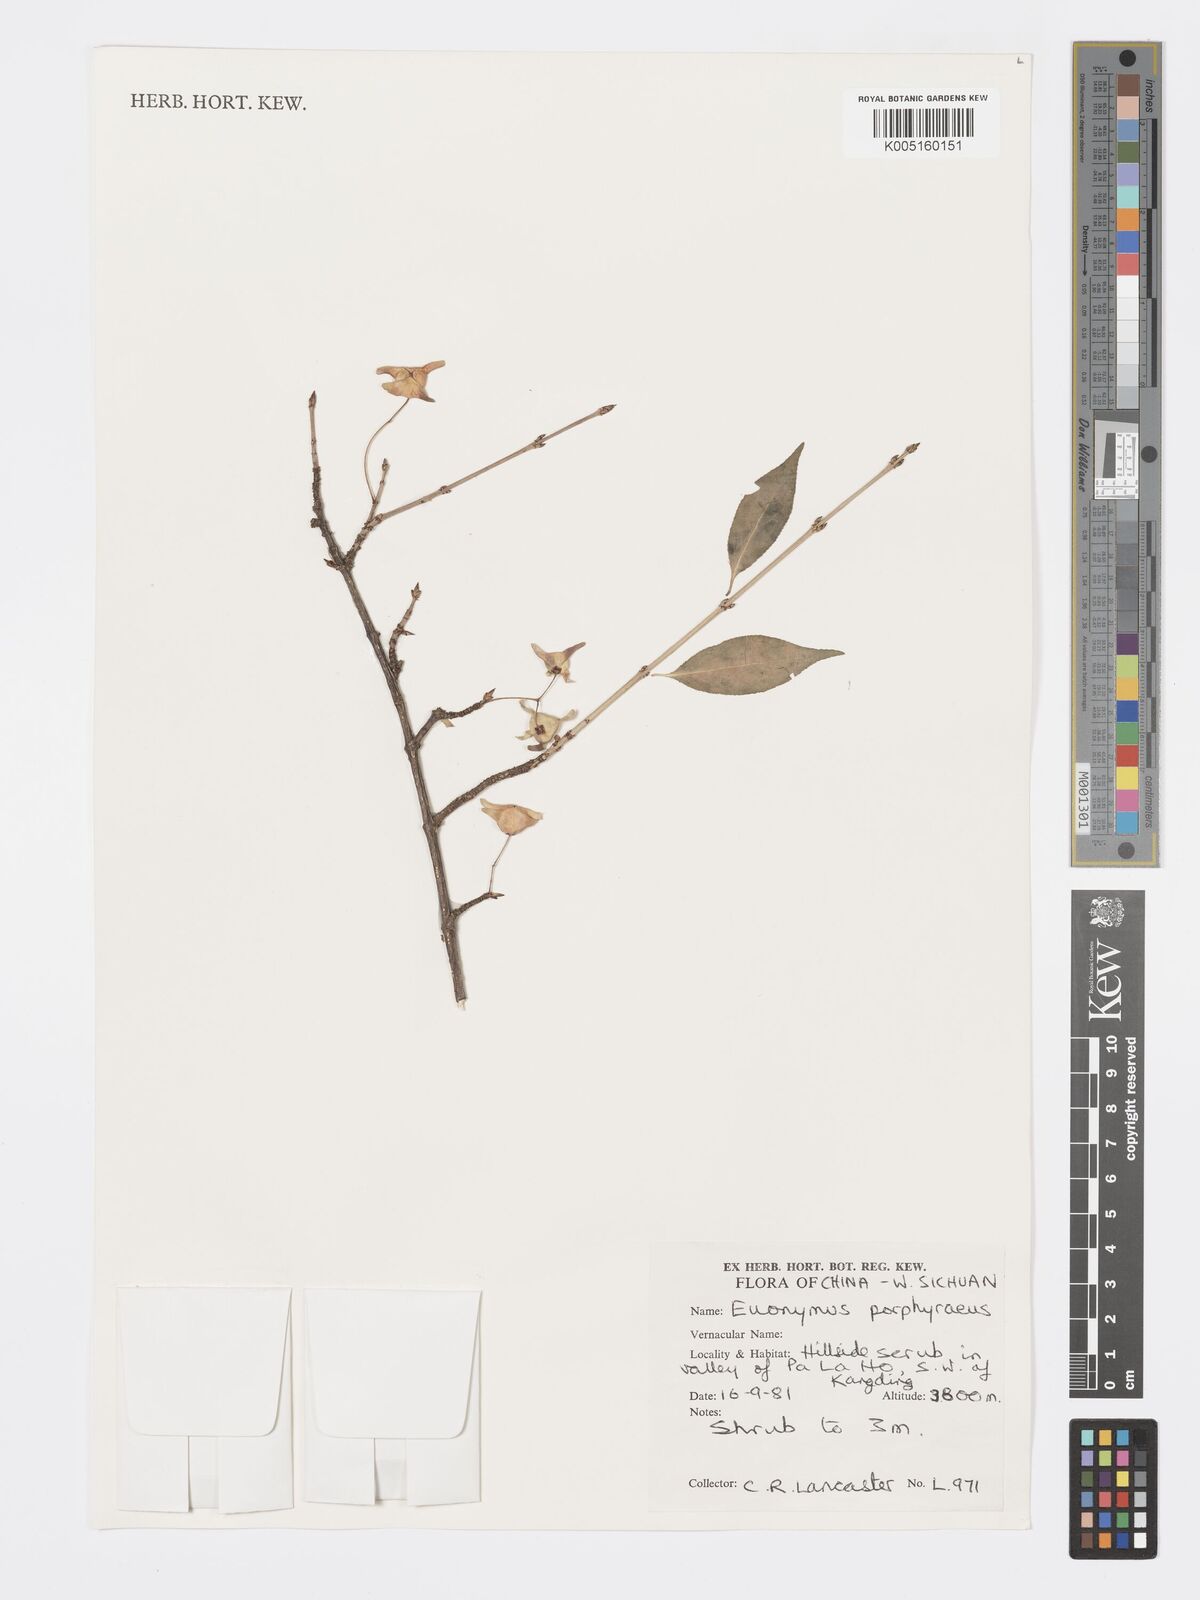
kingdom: Plantae
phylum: Tracheophyta
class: Magnoliopsida
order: Celastrales
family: Celastraceae
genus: Euonymus
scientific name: Euonymus frigidus
